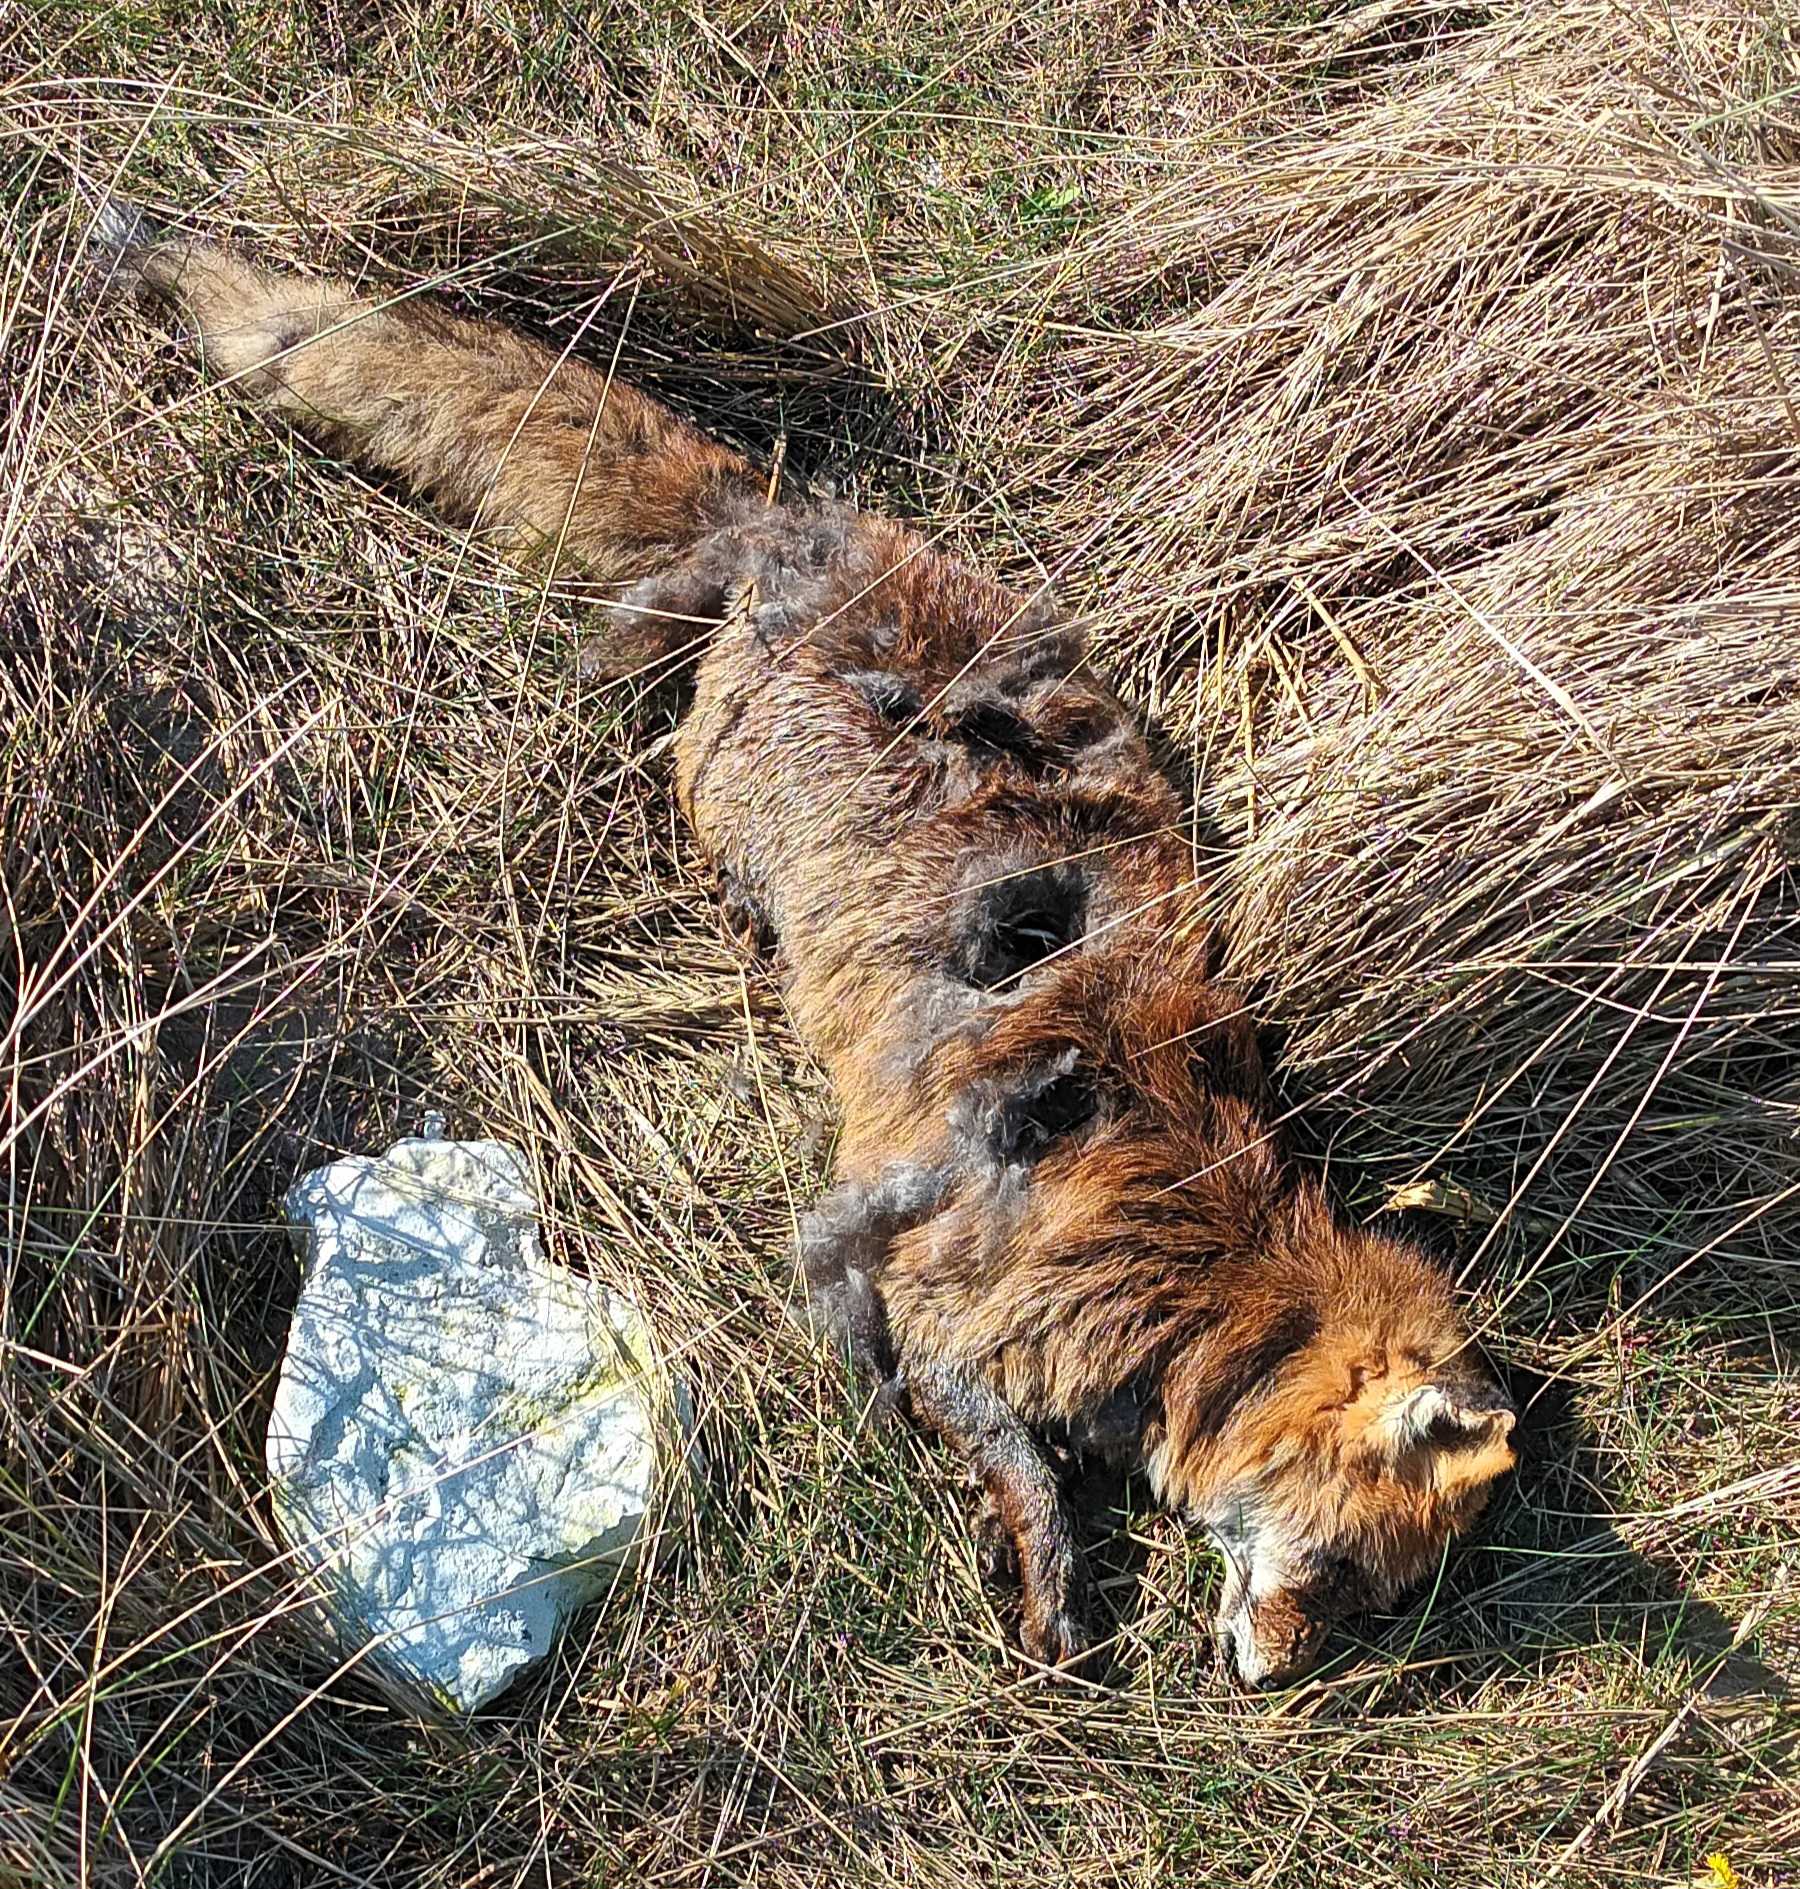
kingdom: Animalia
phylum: Chordata
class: Mammalia
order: Carnivora
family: Canidae
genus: Vulpes
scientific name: Vulpes vulpes
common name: Ræv
